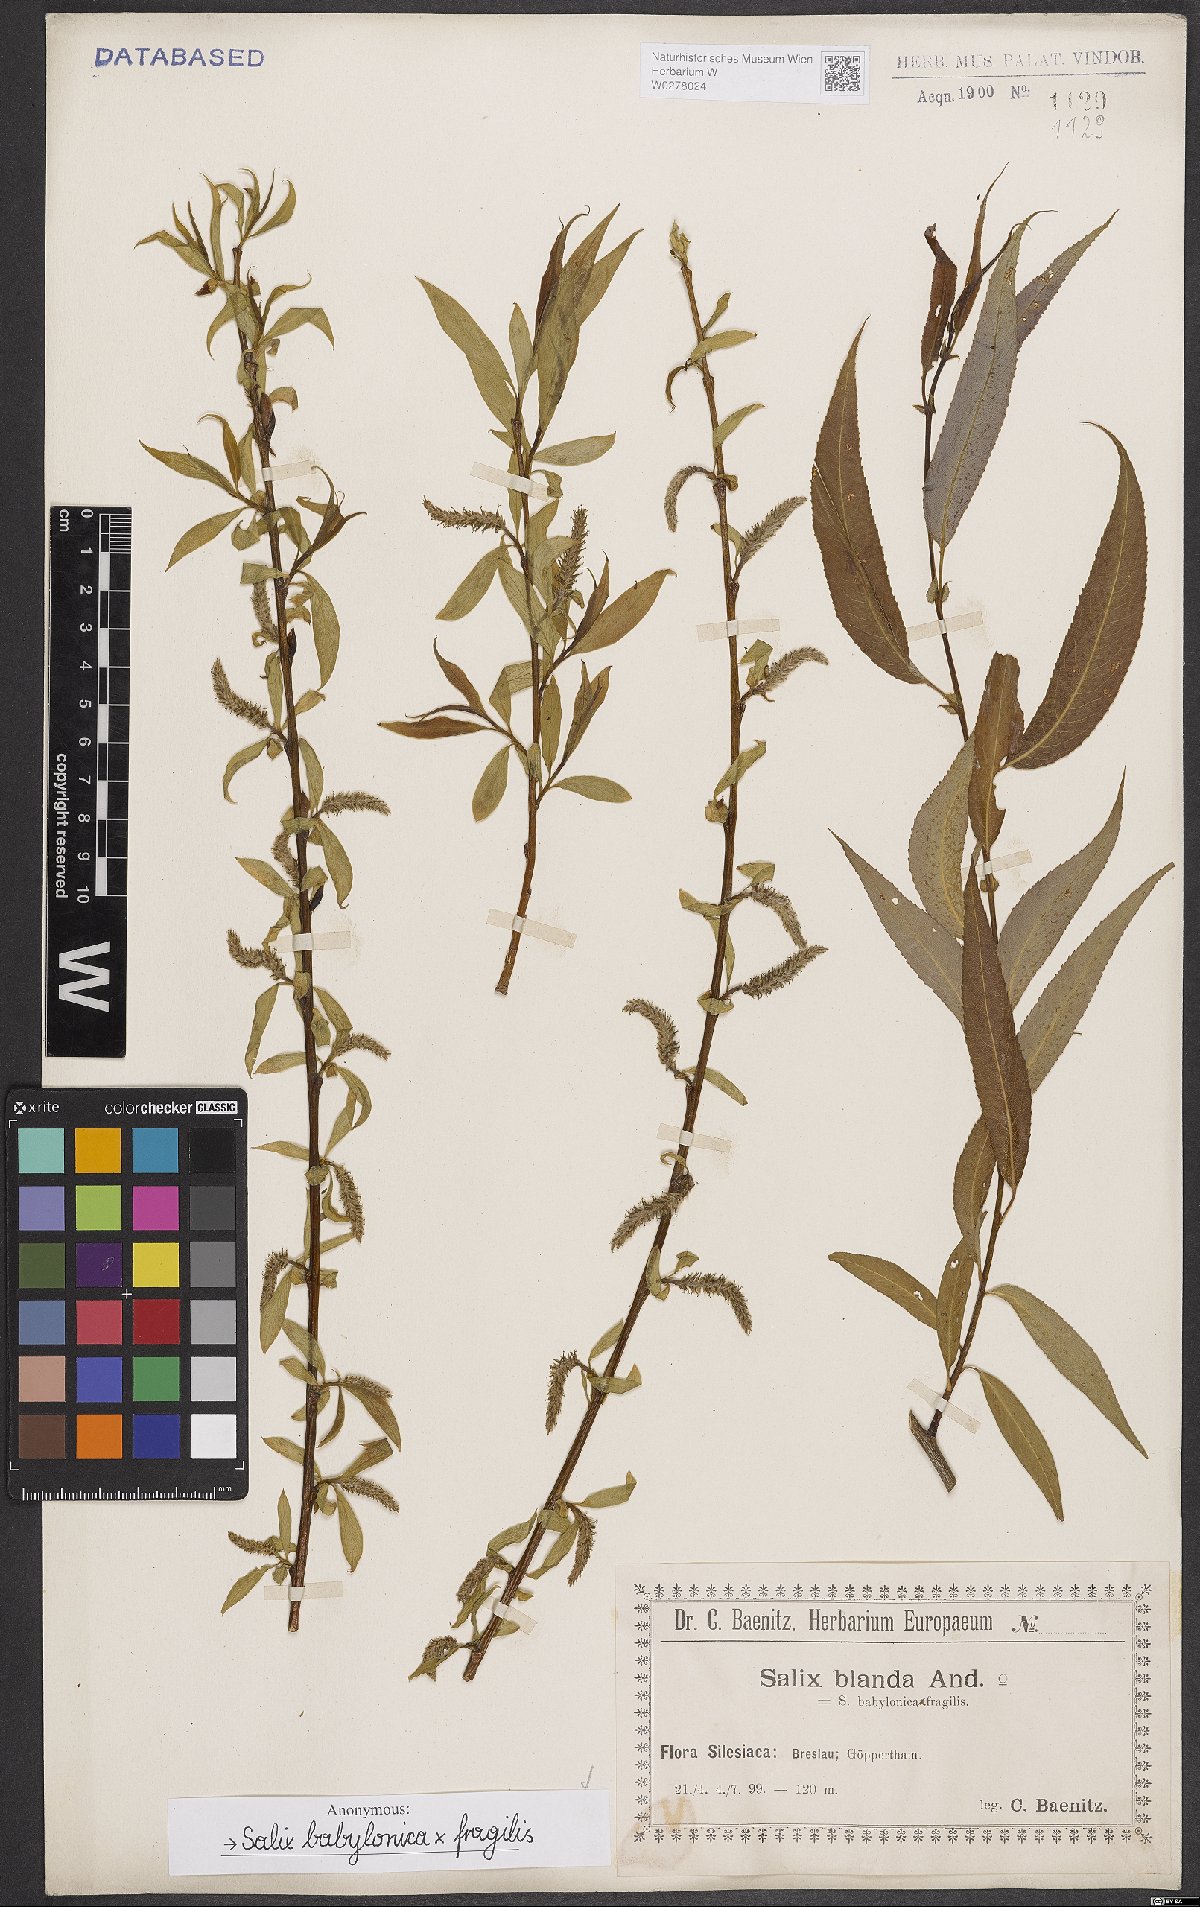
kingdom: Plantae
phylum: Tracheophyta
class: Magnoliopsida
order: Malpighiales
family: Salicaceae
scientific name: Salicaceae
